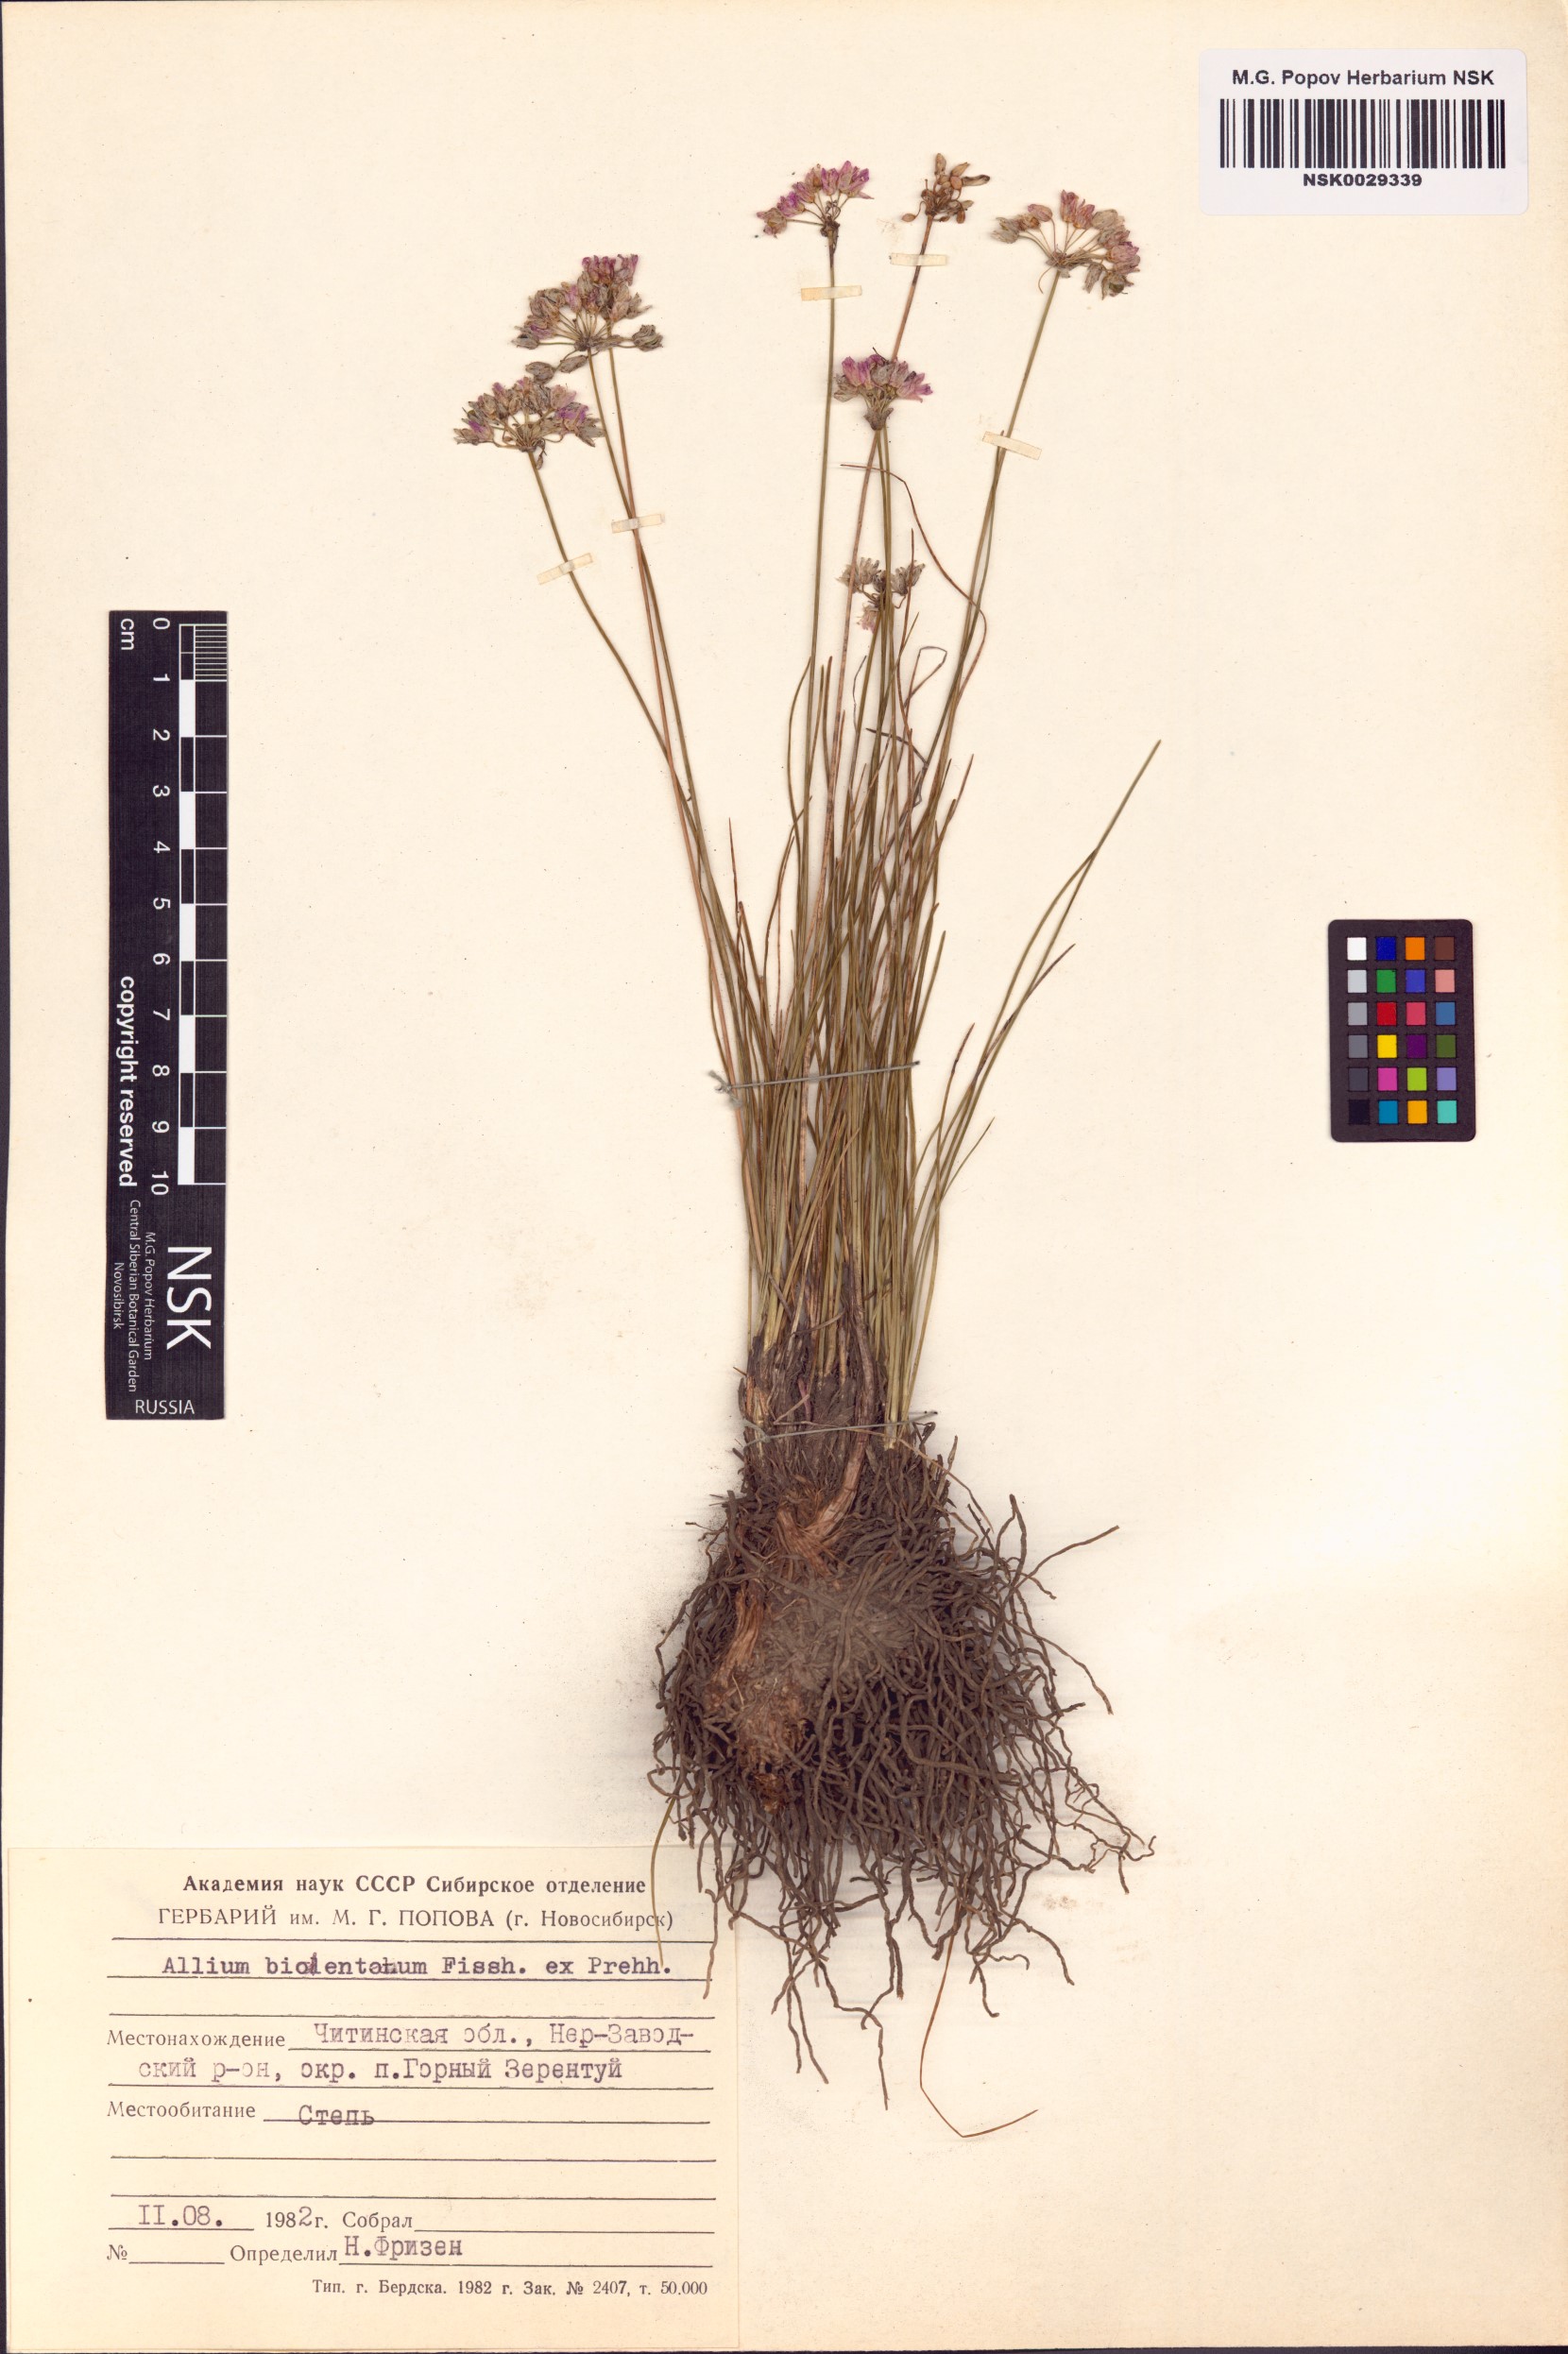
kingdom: Plantae
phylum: Tracheophyta
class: Liliopsida
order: Asparagales
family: Amaryllidaceae
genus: Allium
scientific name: Allium bidentatum
